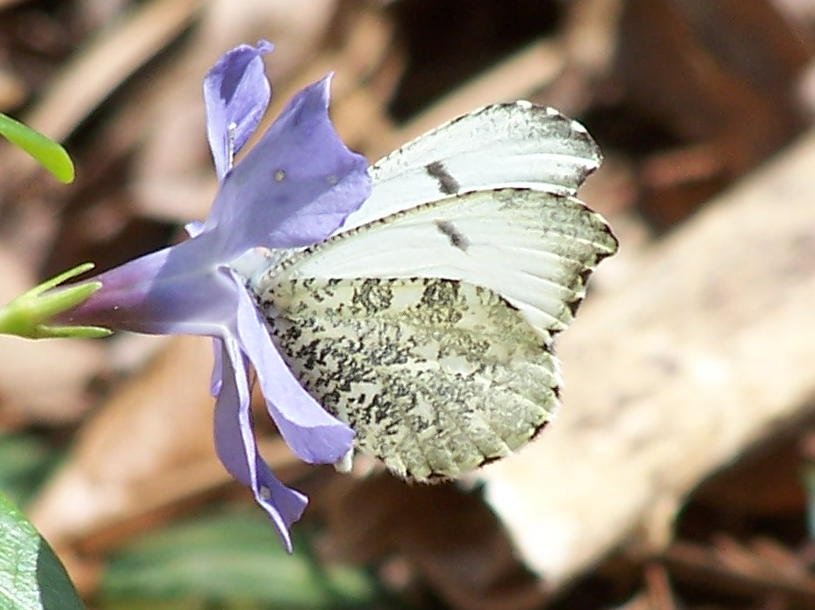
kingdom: Animalia
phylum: Arthropoda
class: Insecta
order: Lepidoptera
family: Pieridae
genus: Anthocharis
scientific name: Anthocharis midea
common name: Falcate Orangetip
